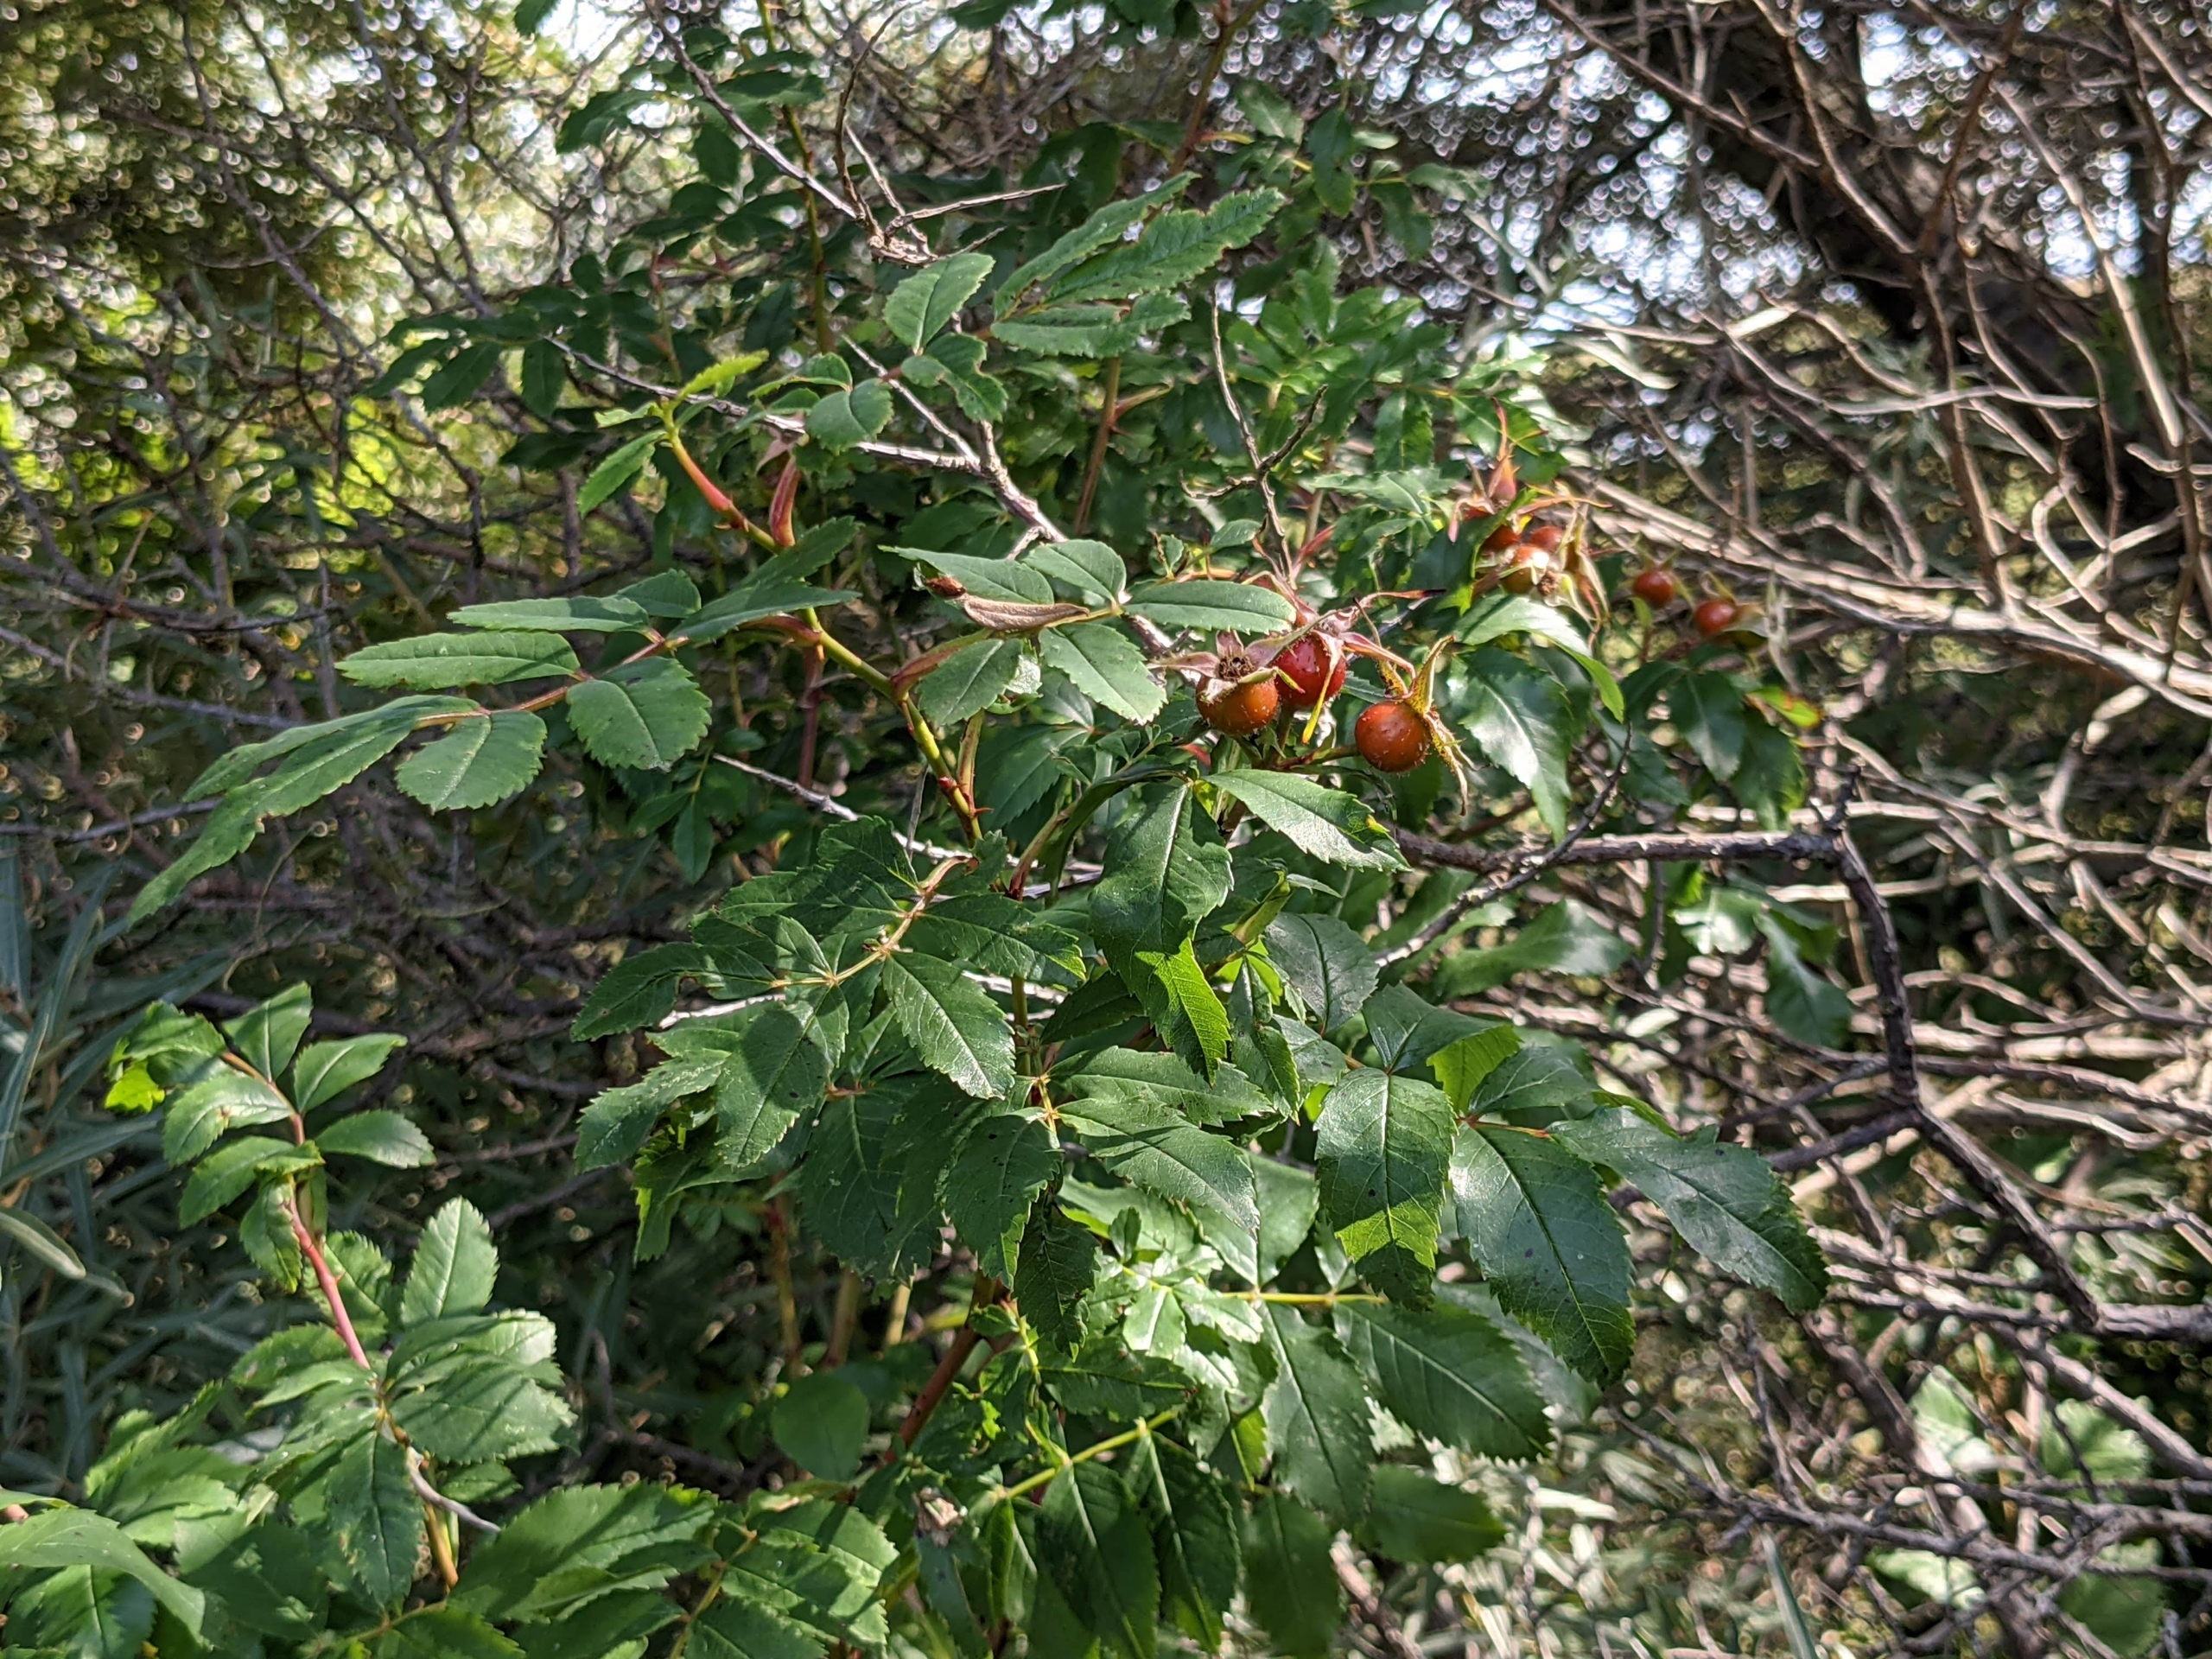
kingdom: Plantae
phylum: Tracheophyta
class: Magnoliopsida
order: Rosales
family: Rosaceae
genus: Rosa
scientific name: Rosa carolina
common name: Glansbladet rose
